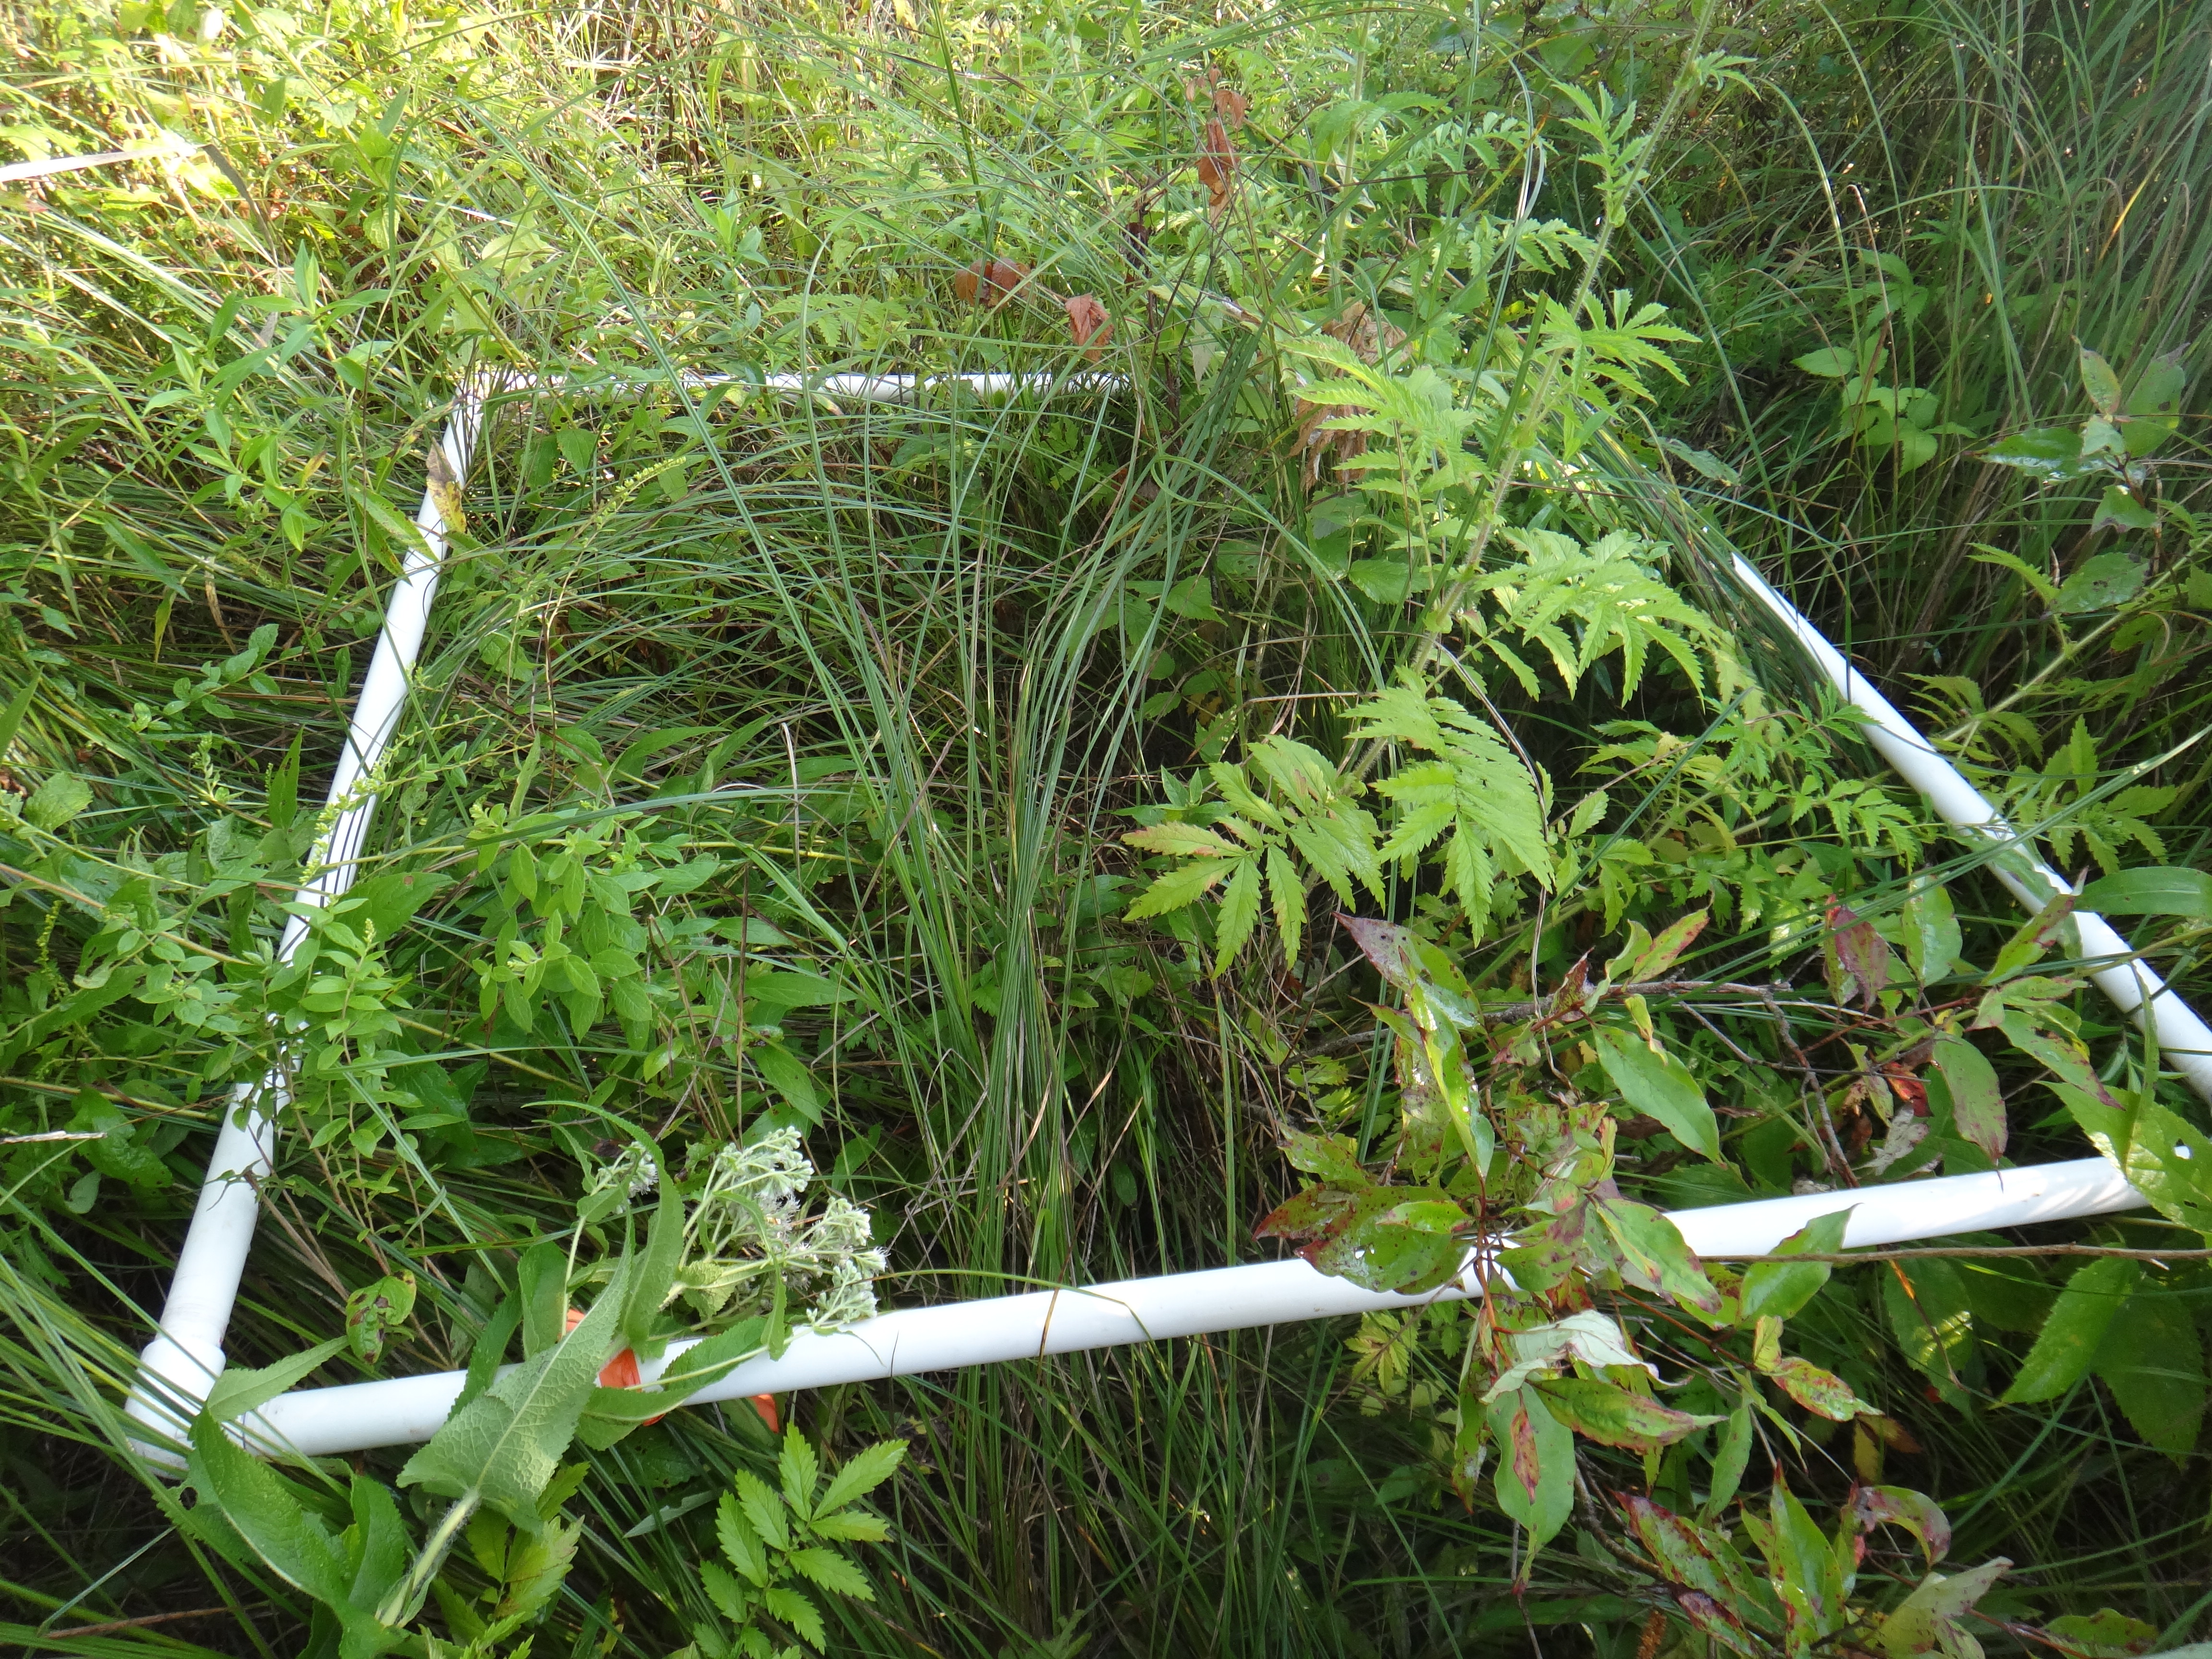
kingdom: Plantae
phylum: Tracheophyta
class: Magnoliopsida
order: Lamiales
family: Lamiaceae
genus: Mentha
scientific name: Mentha canadensis
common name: American corn mint
